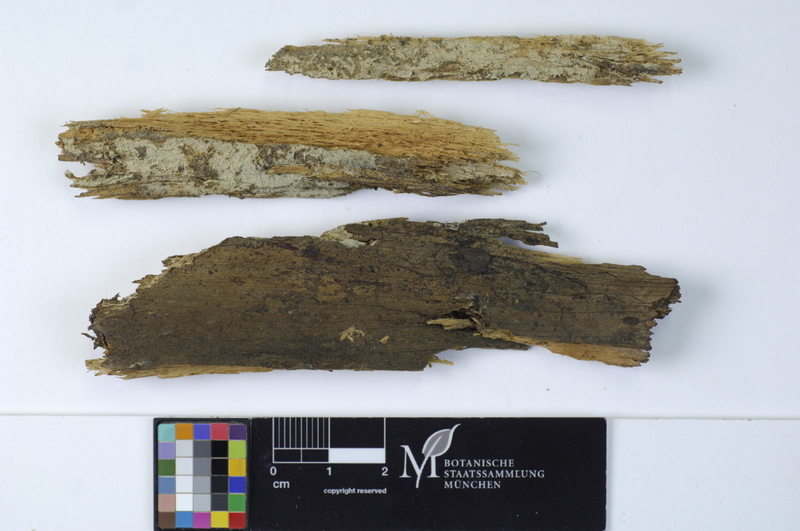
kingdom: Fungi
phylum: Basidiomycota
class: Agaricomycetes
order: Cantharellales
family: Botryobasidiaceae
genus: Botryobasidium
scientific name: Botryobasidium subcoronatum
